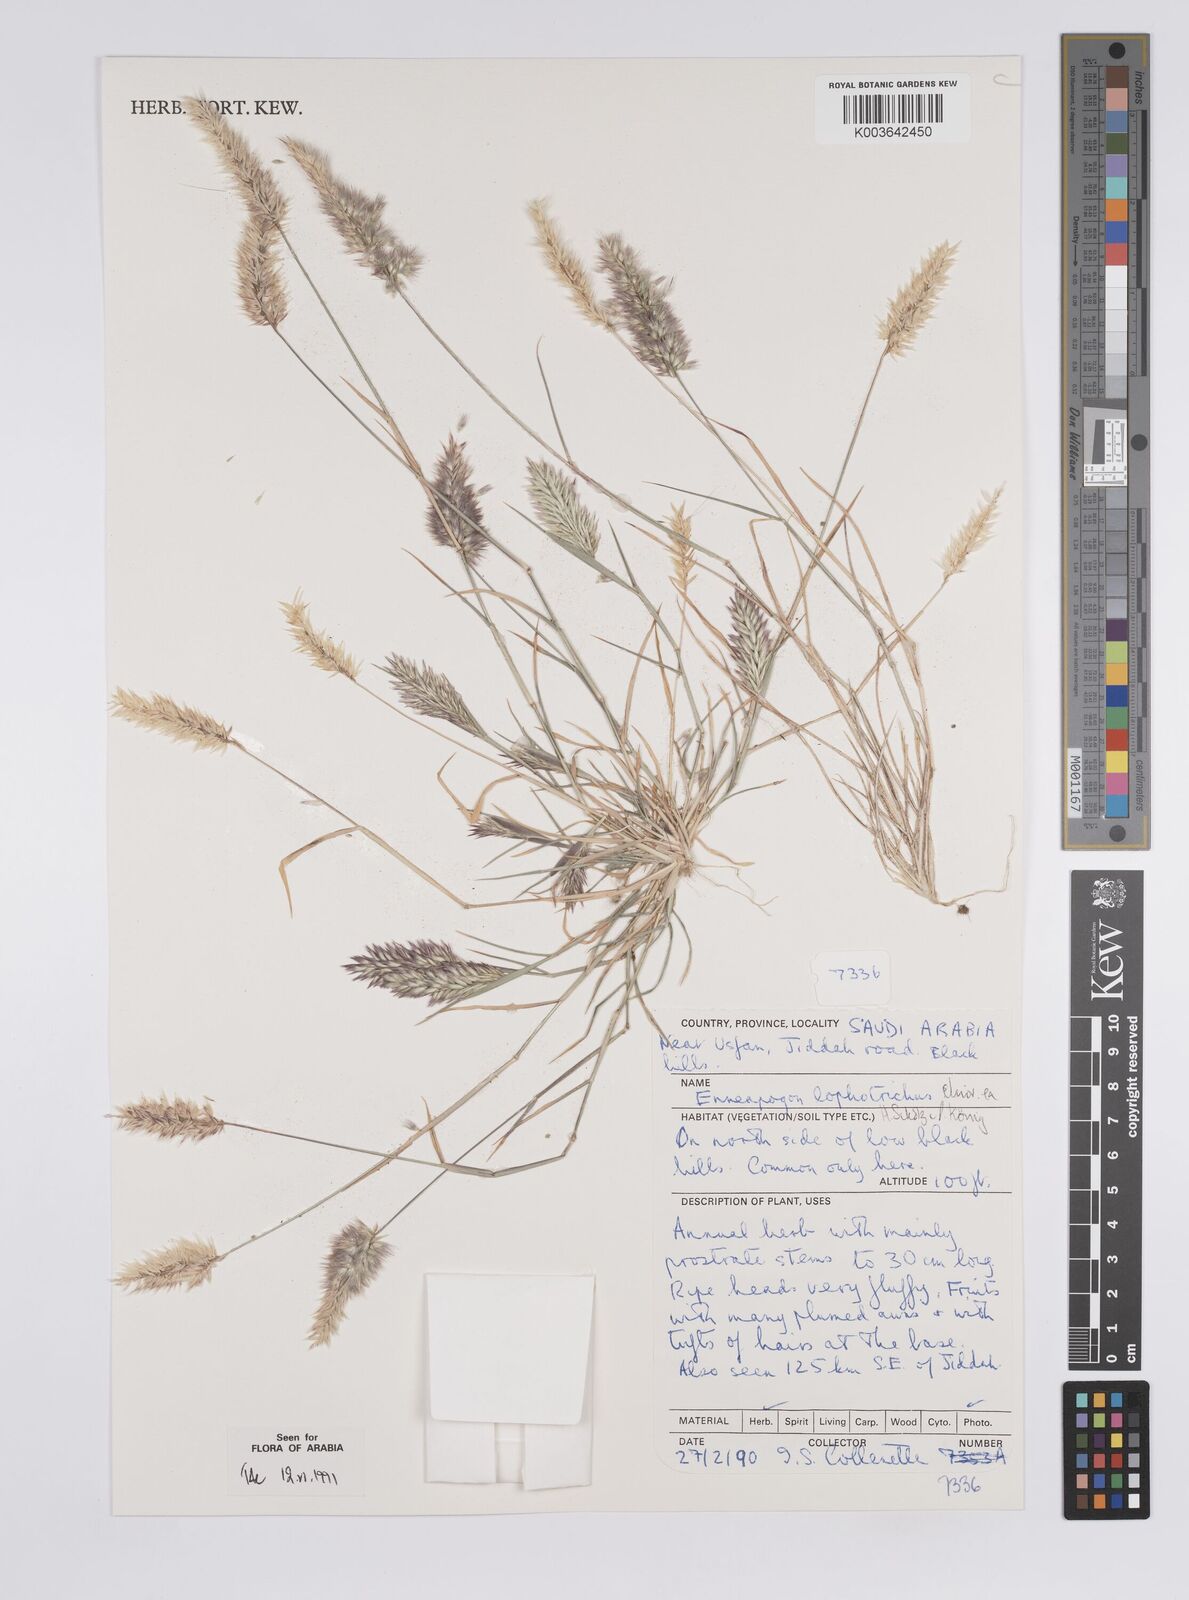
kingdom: Plantae
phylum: Tracheophyta
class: Liliopsida
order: Poales
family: Poaceae
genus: Enneapogon
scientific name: Enneapogon lophotrichus
